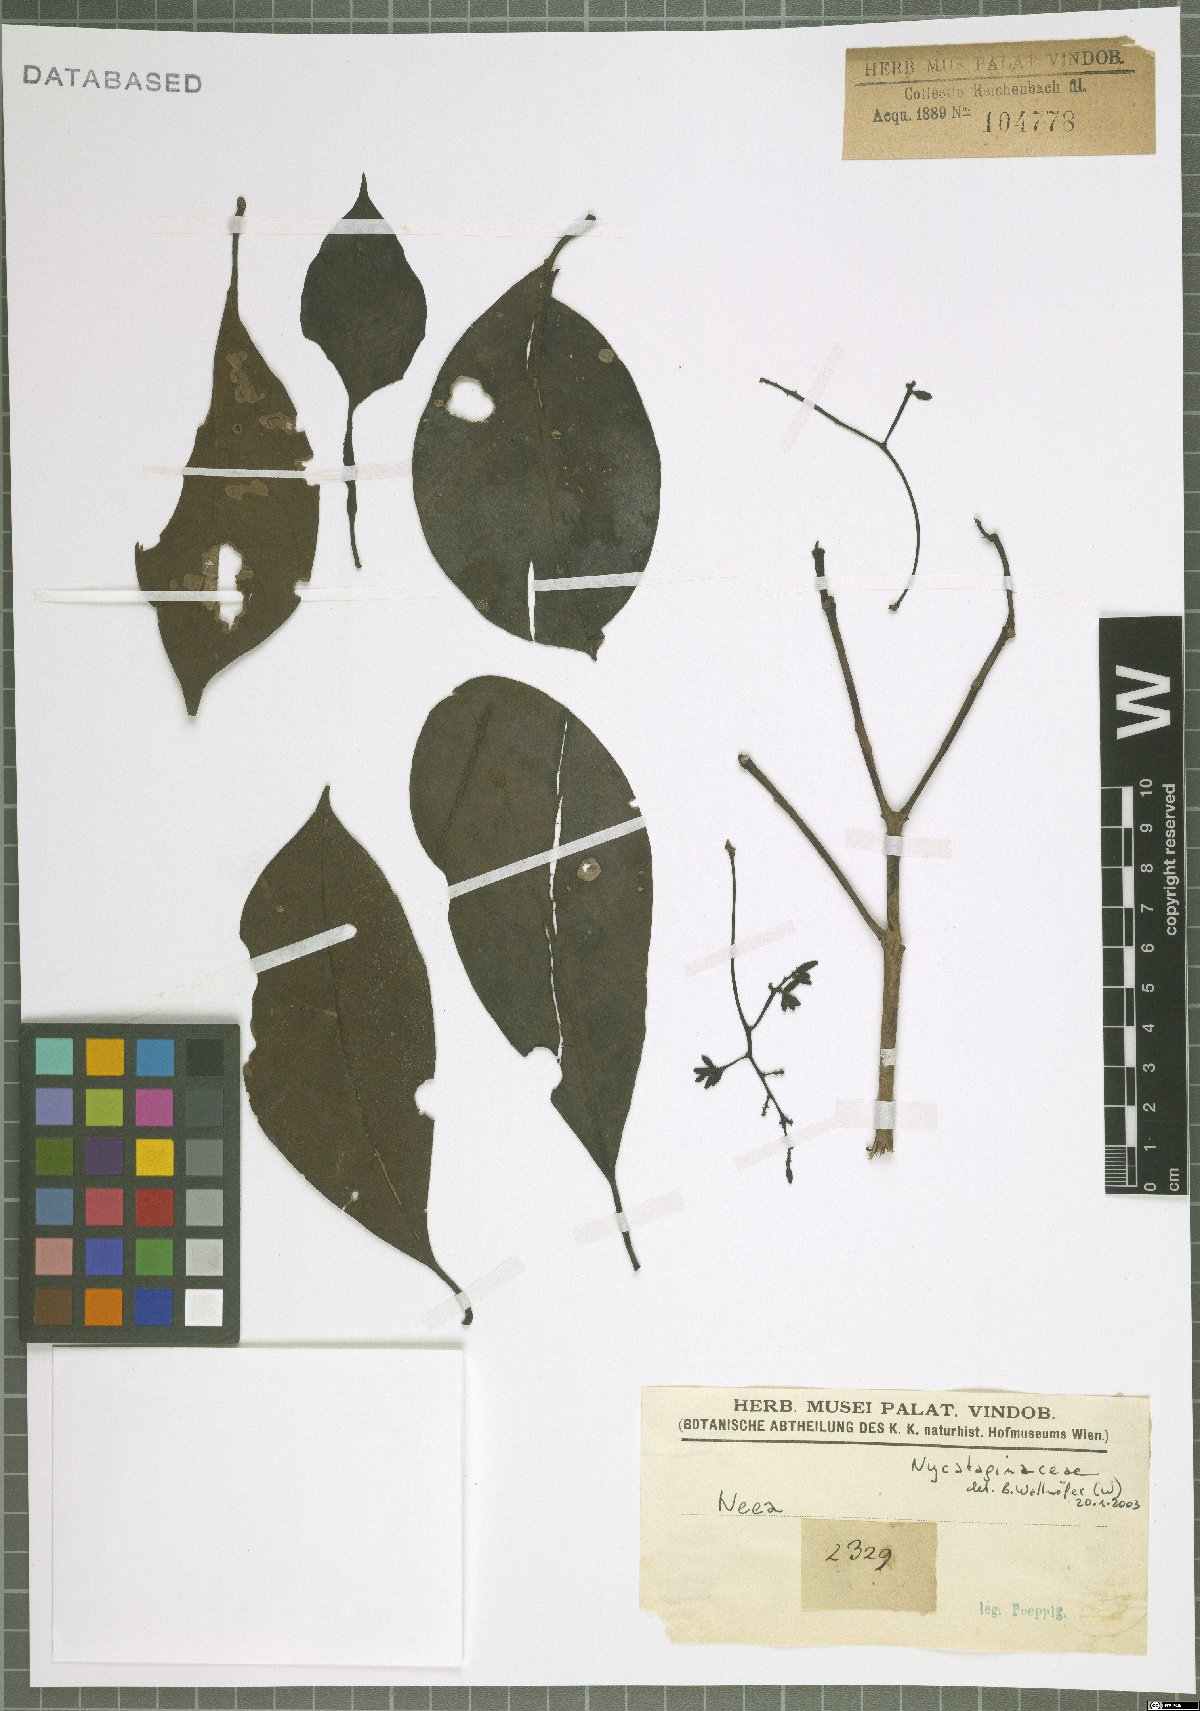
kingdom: Plantae
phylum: Tracheophyta
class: Magnoliopsida
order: Caryophyllales
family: Nyctaginaceae
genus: Neea
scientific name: Neea
